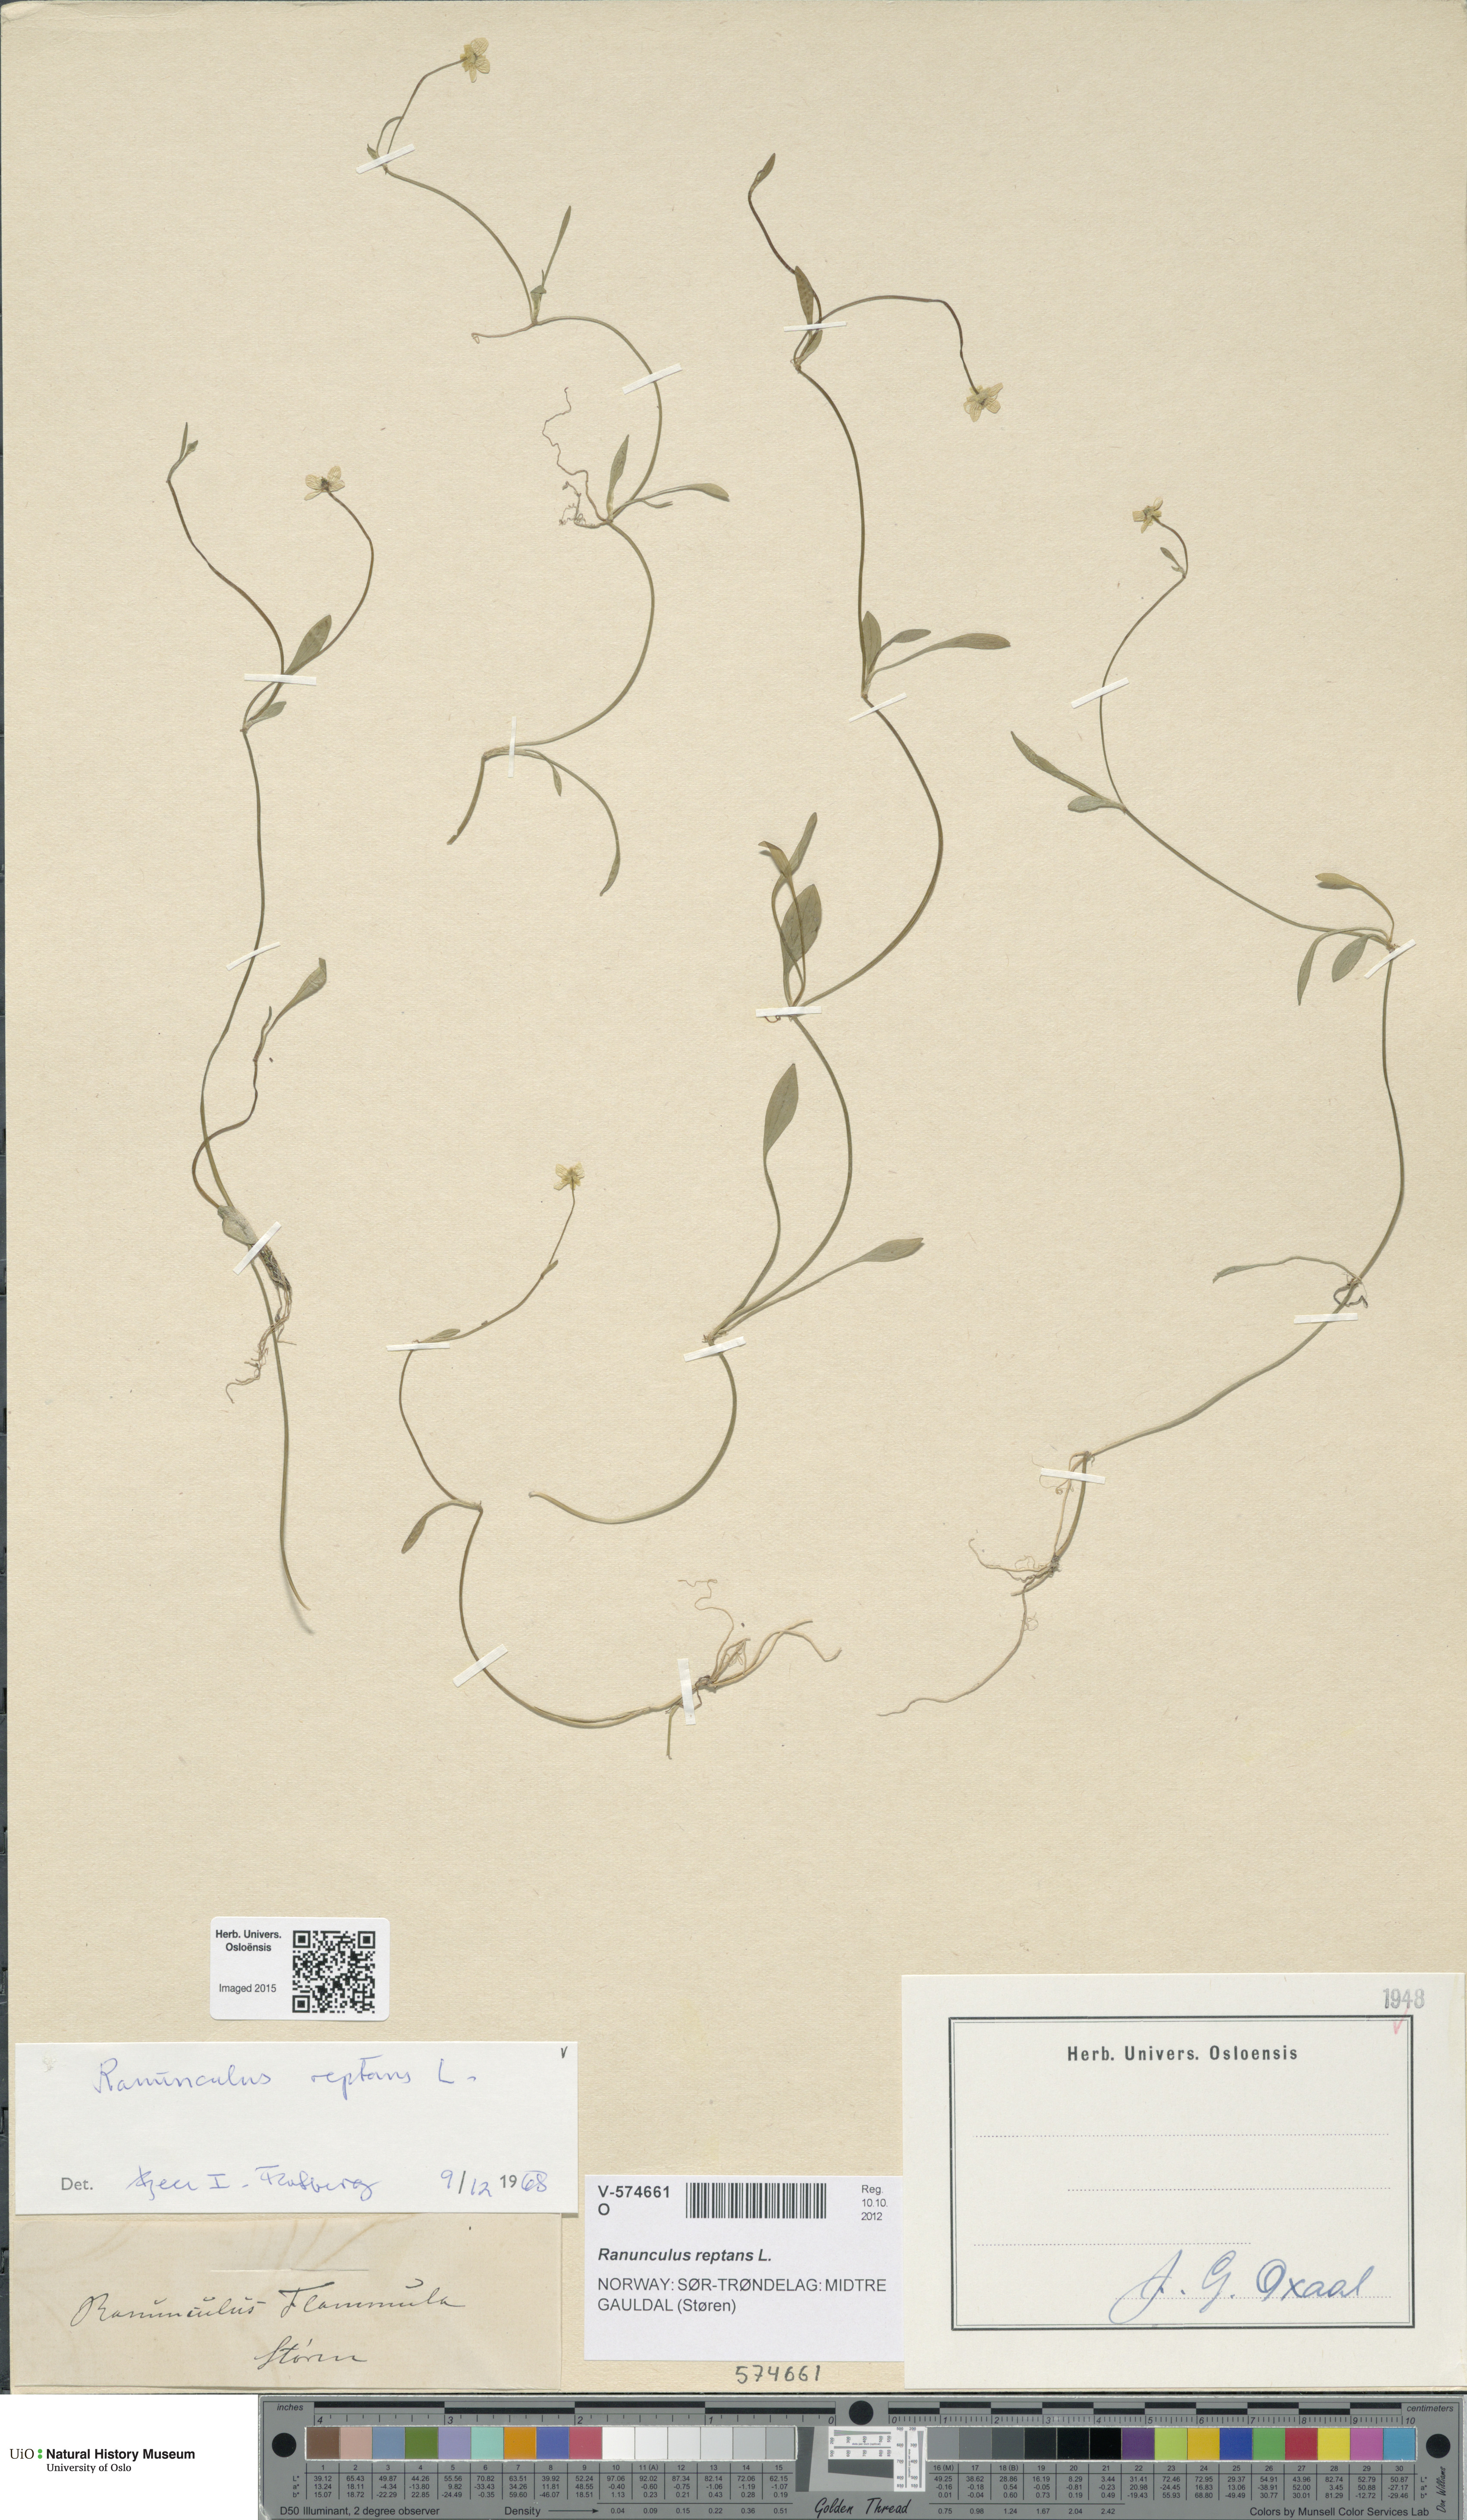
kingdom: Plantae
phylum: Tracheophyta
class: Magnoliopsida
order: Ranunculales
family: Ranunculaceae
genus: Ranunculus
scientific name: Ranunculus reptans
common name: Creeping spearwort
